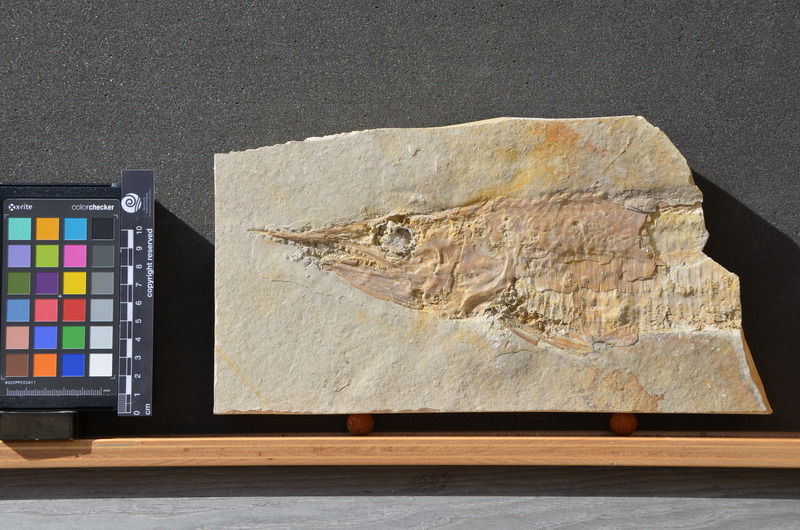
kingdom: Animalia
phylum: Chordata
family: Aspidorhynchidae
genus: Aspidorhynchus
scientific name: Aspidorhynchus acutirostris
